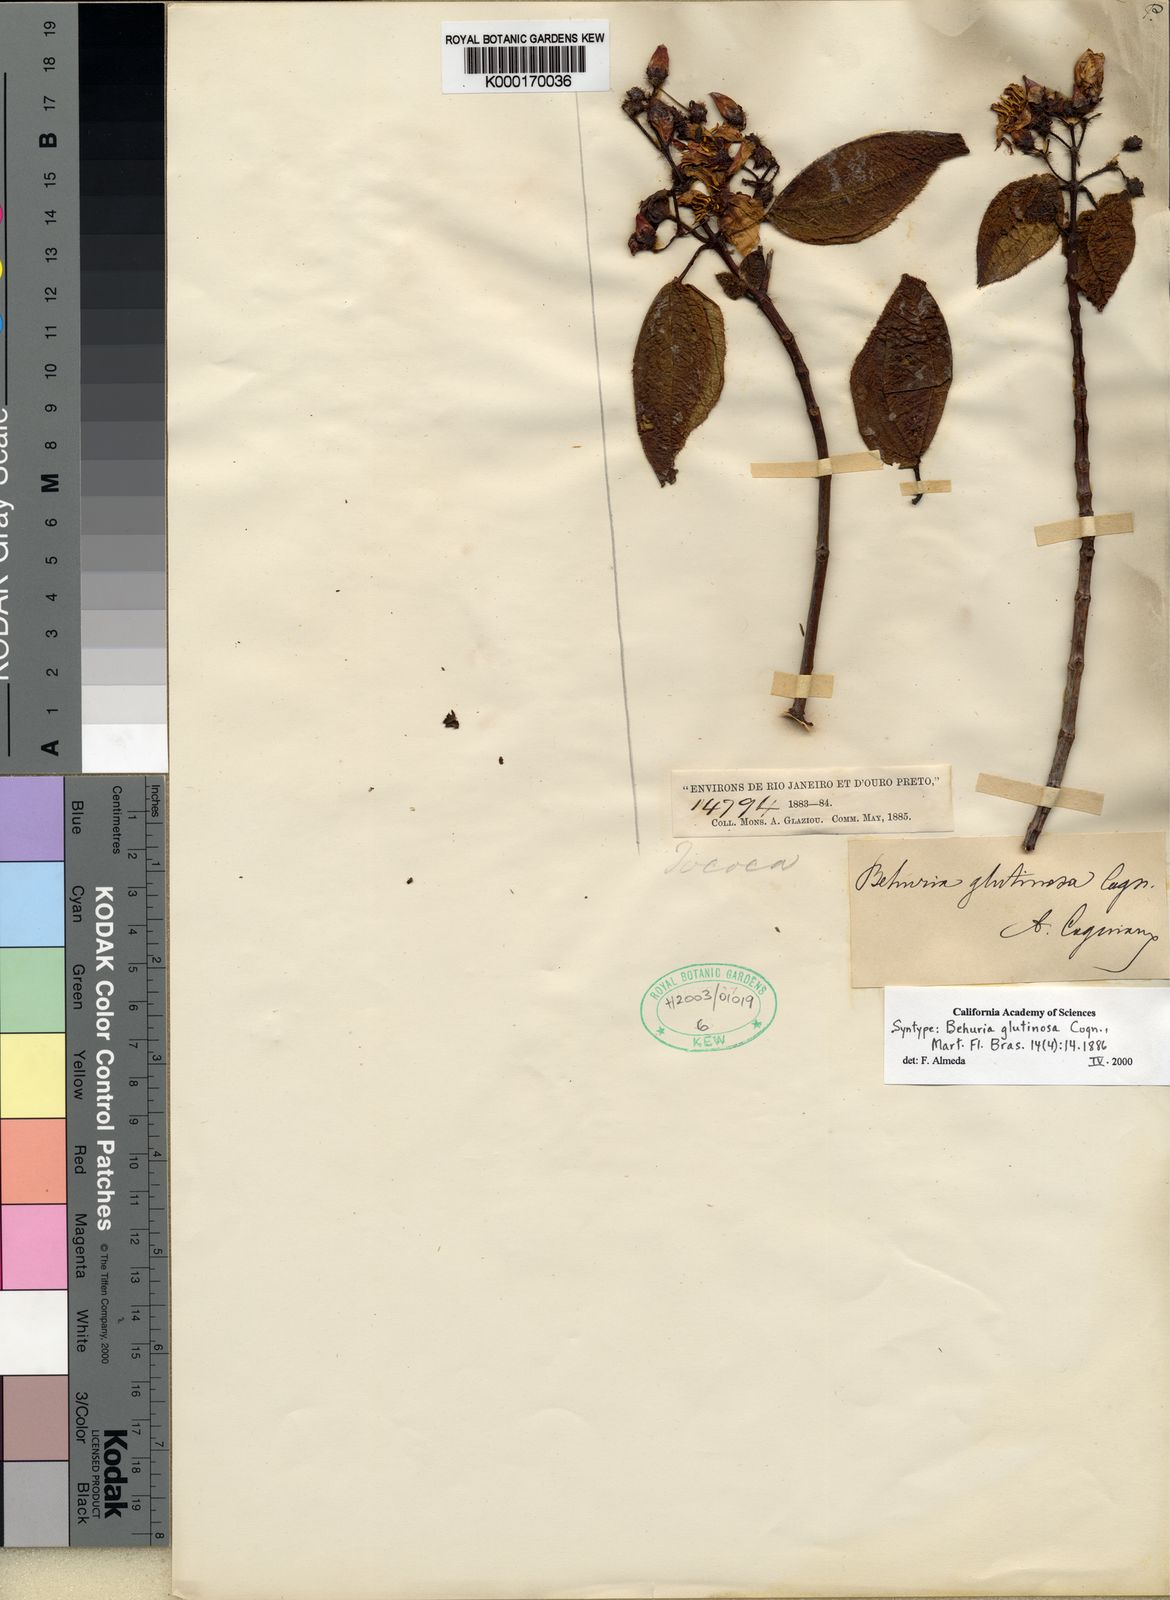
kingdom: Plantae
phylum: Tracheophyta
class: Magnoliopsida
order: Myrtales
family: Melastomataceae
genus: Huberia
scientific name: Huberia glutinosa
